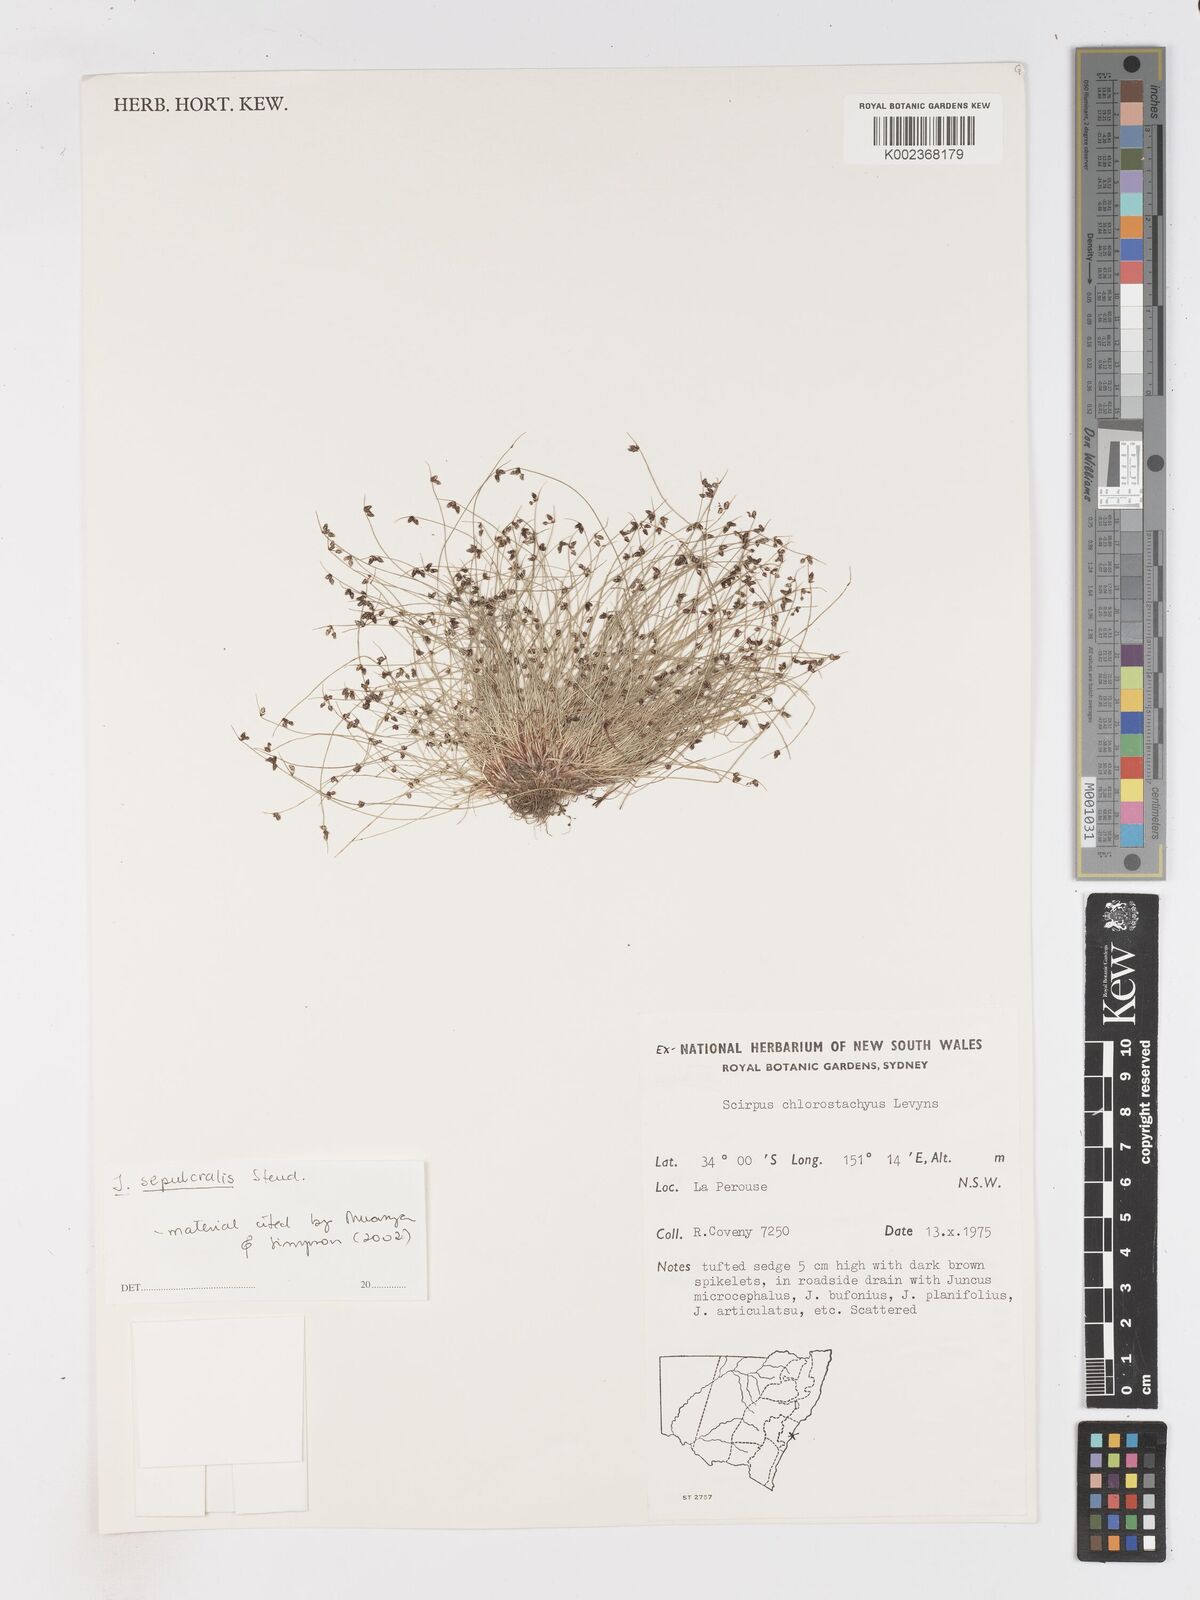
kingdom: Plantae
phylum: Tracheophyta
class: Liliopsida
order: Poales
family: Cyperaceae
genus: Isolepis
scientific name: Isolepis sepulcralis
